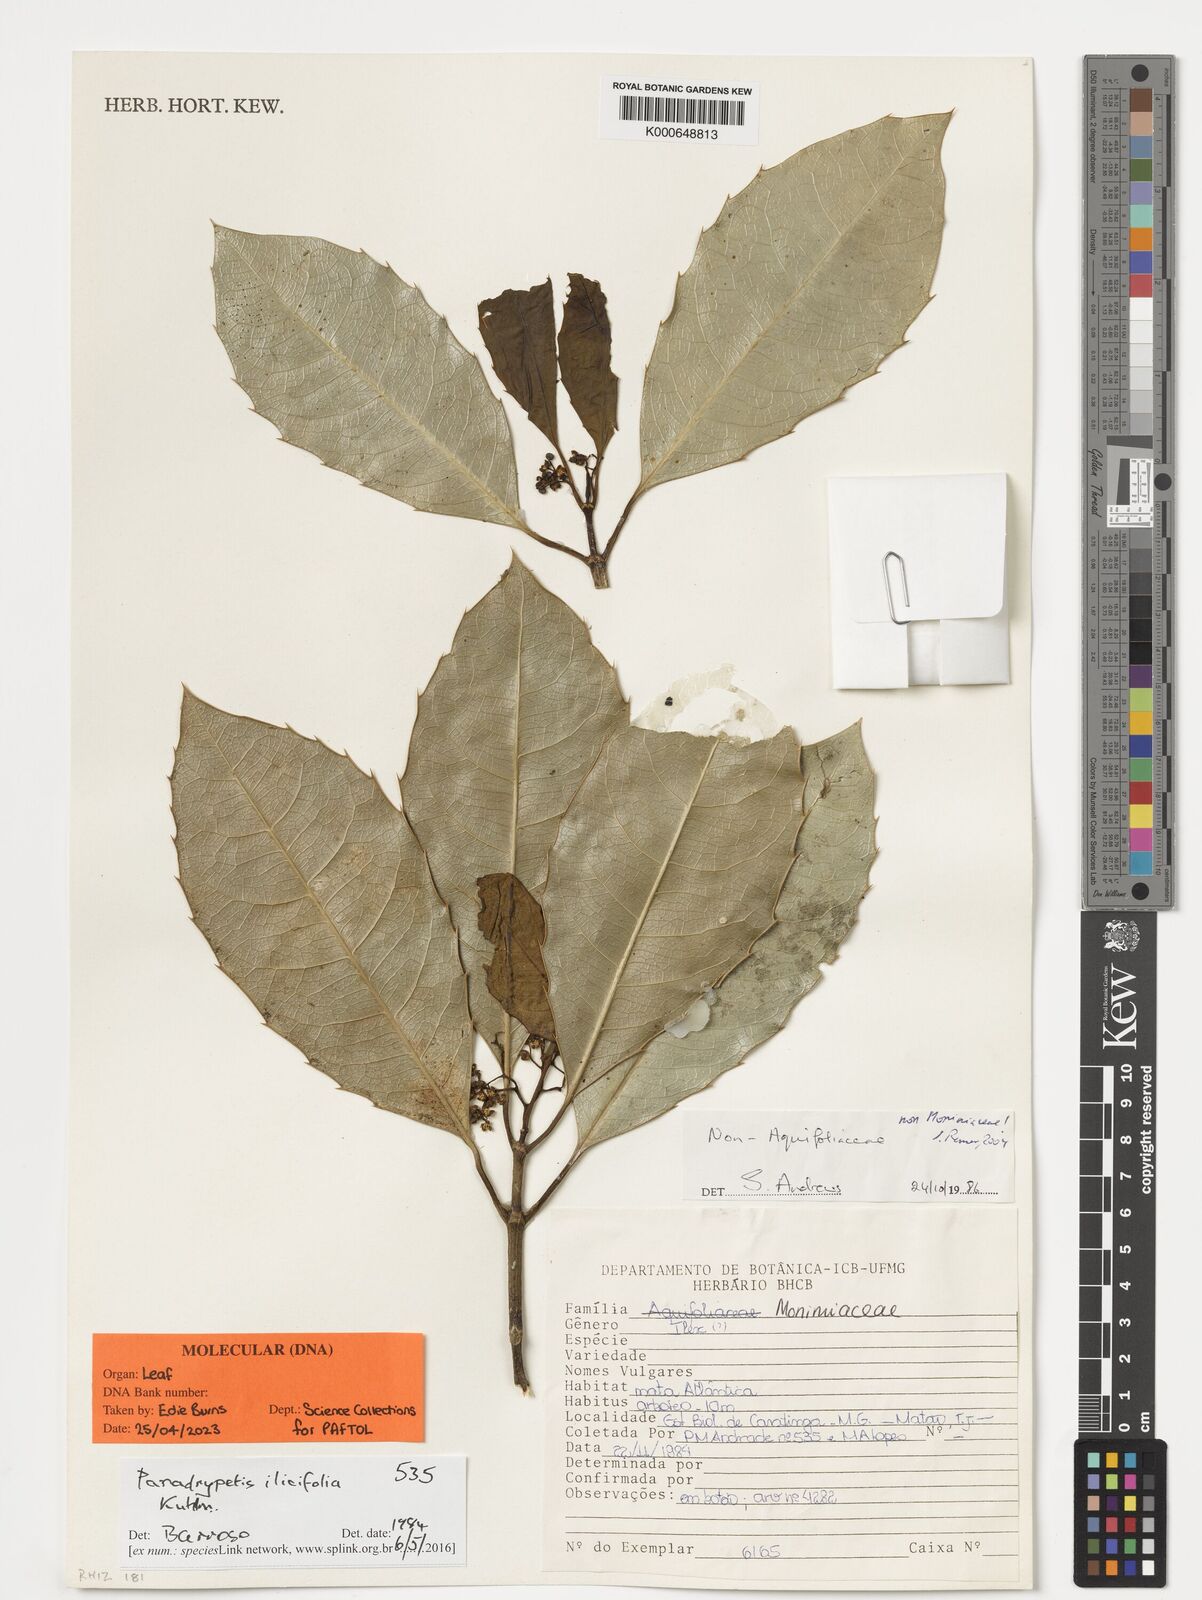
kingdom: Plantae
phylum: Tracheophyta
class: Magnoliopsida
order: Malpighiales
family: Rhizophoraceae
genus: Paradrypetes
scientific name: Paradrypetes ilicifolia
